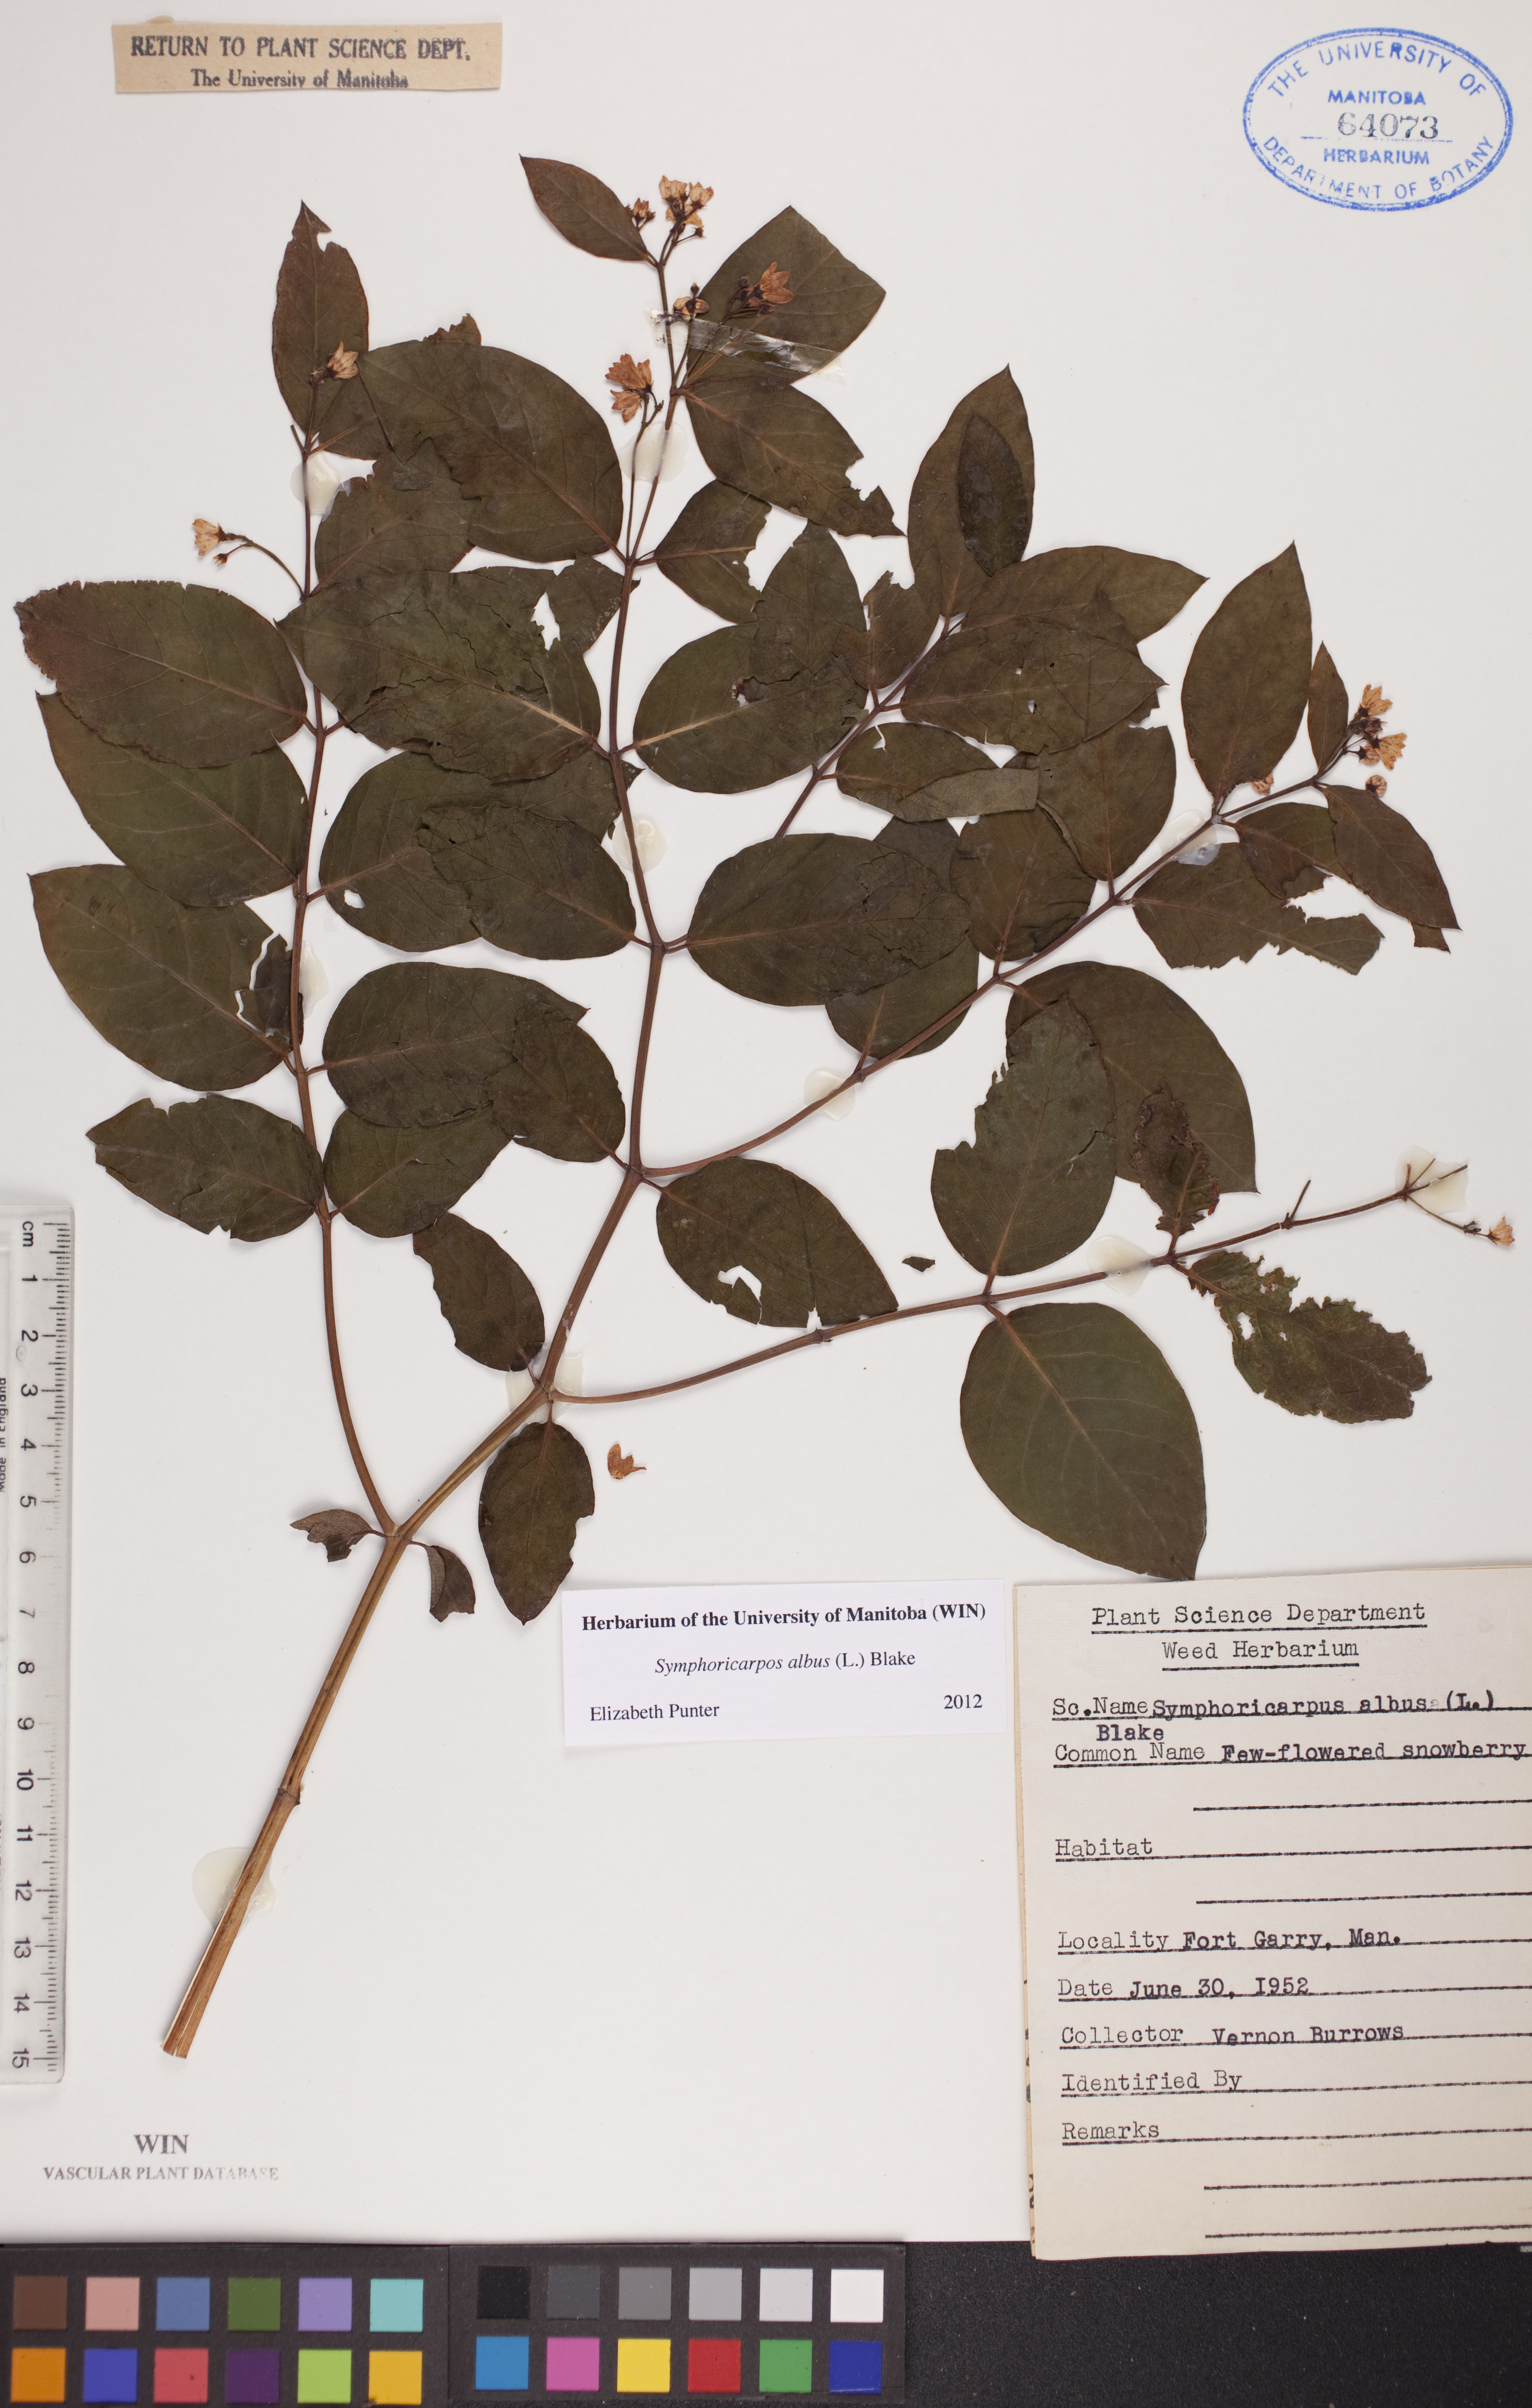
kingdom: Plantae
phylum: Tracheophyta
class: Magnoliopsida
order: Dipsacales
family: Caprifoliaceae
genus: Symphoricarpos
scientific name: Symphoricarpos albus
